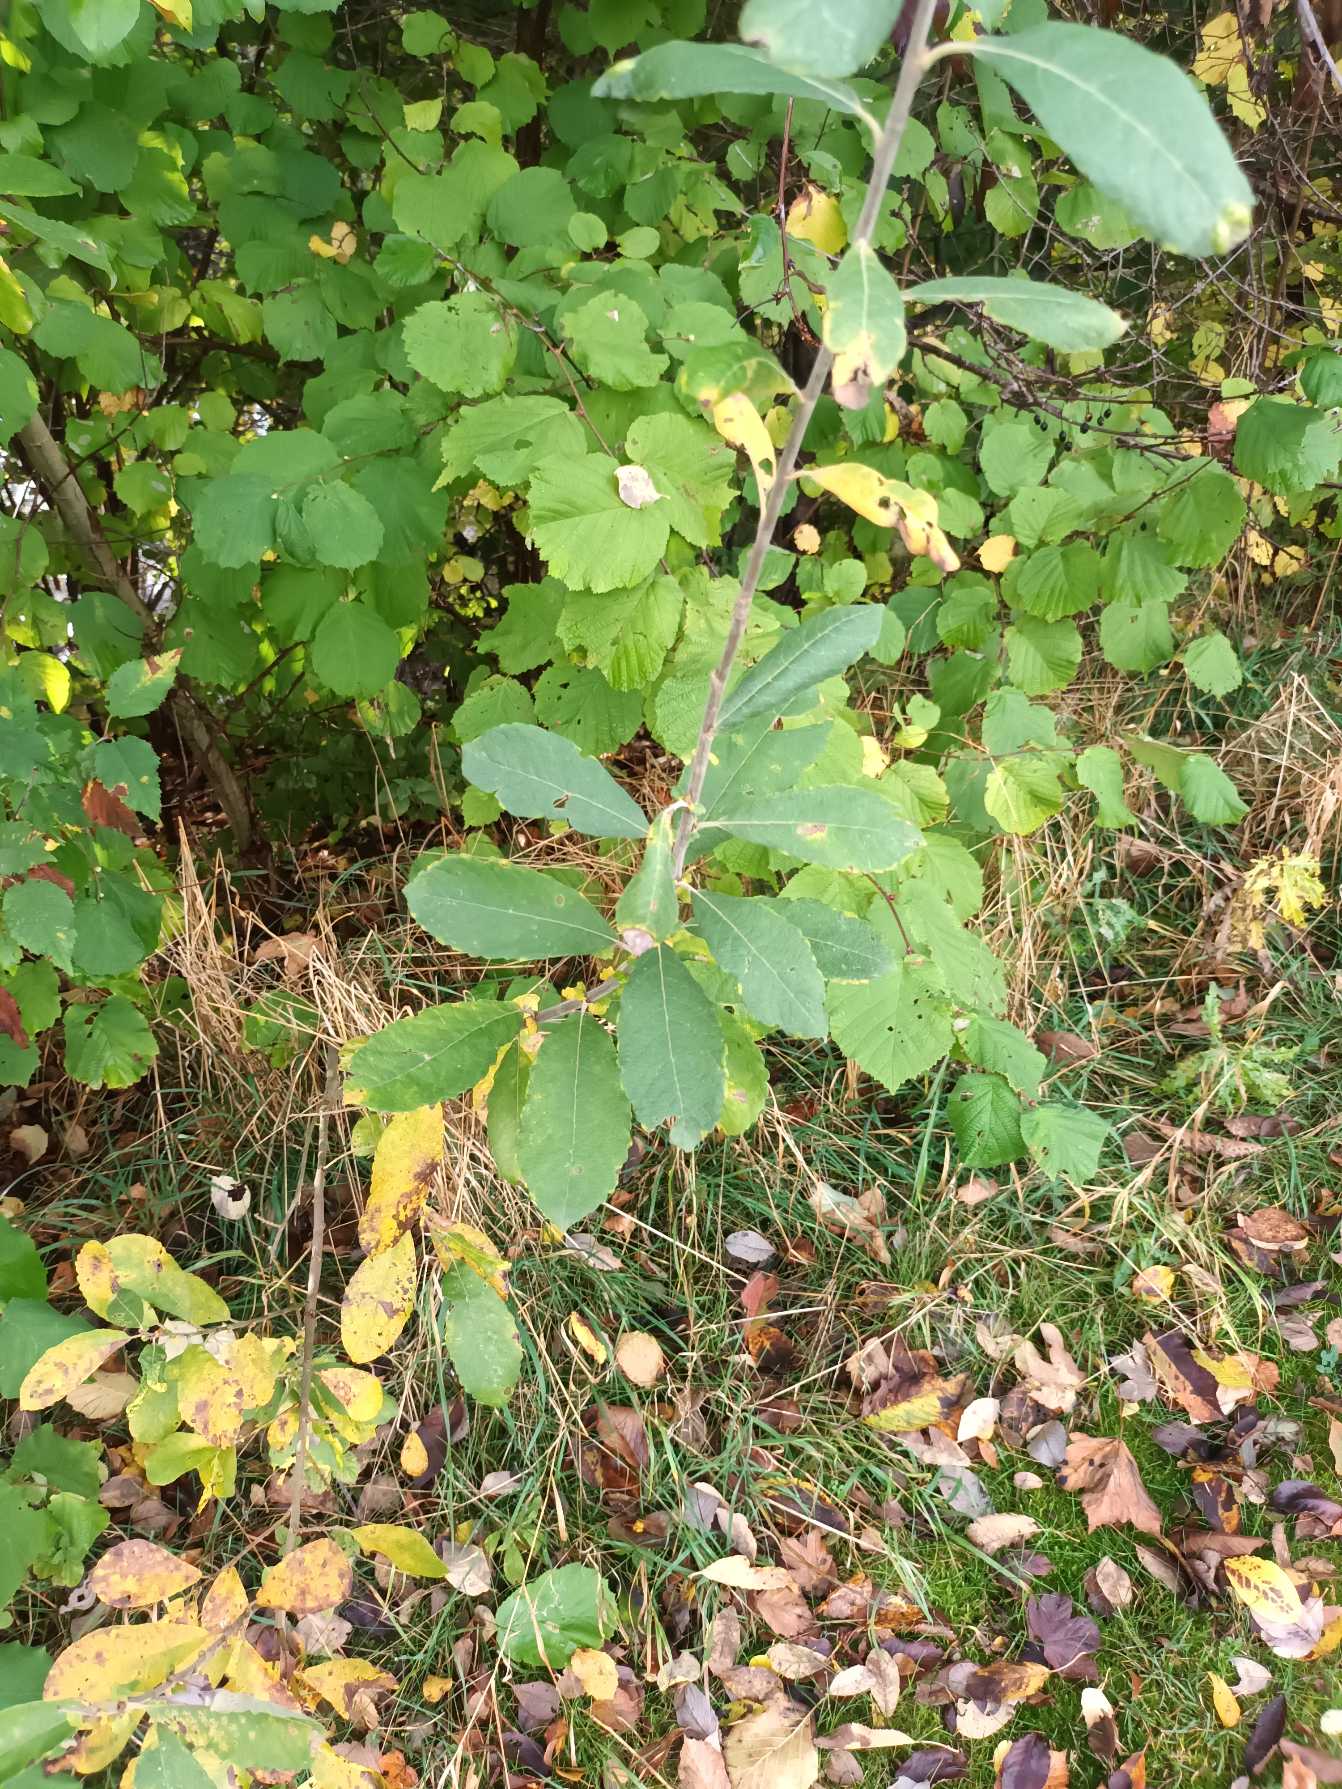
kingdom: Plantae
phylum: Tracheophyta
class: Magnoliopsida
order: Malpighiales
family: Salicaceae
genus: Salix
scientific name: Salix cinerea
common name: Grå-pil
